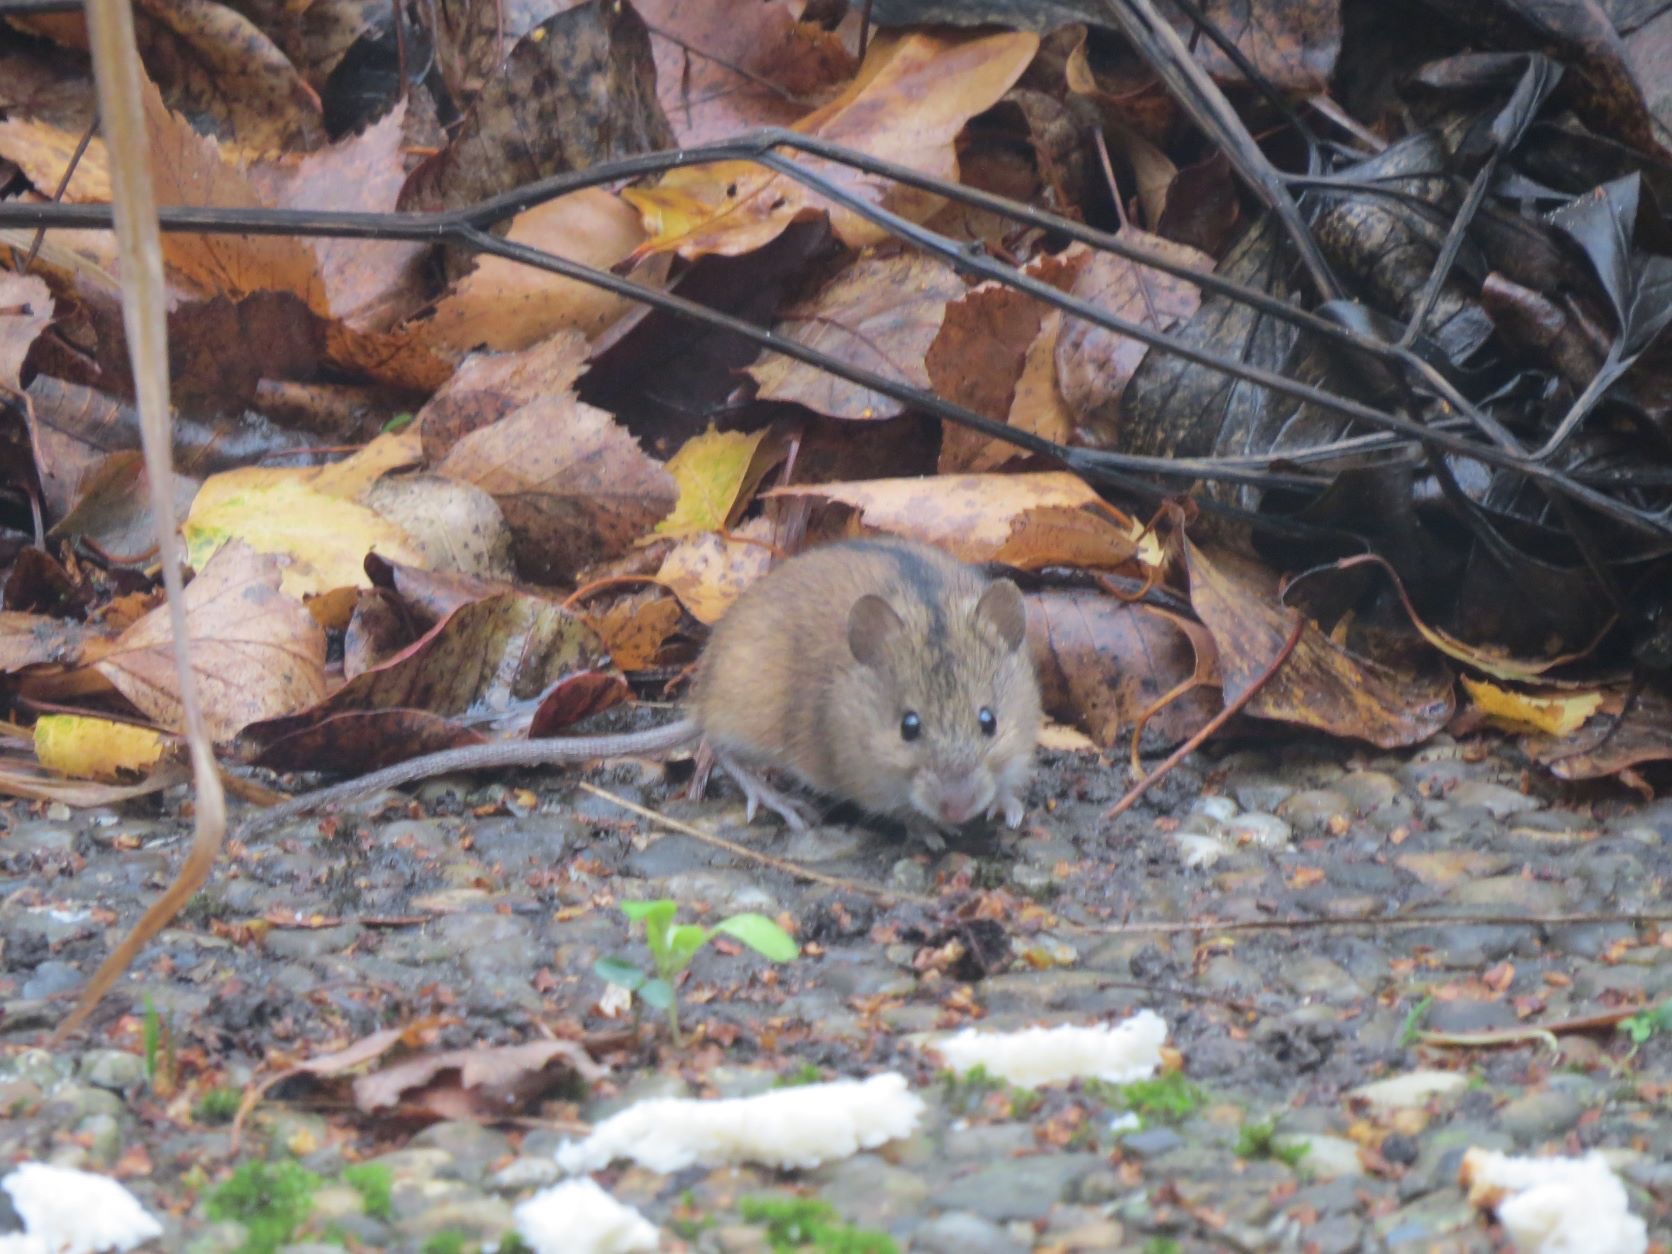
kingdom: Animalia
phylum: Chordata
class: Mammalia
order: Rodentia
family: Muridae
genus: Apodemus
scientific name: Apodemus agrarius
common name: Brandmus
